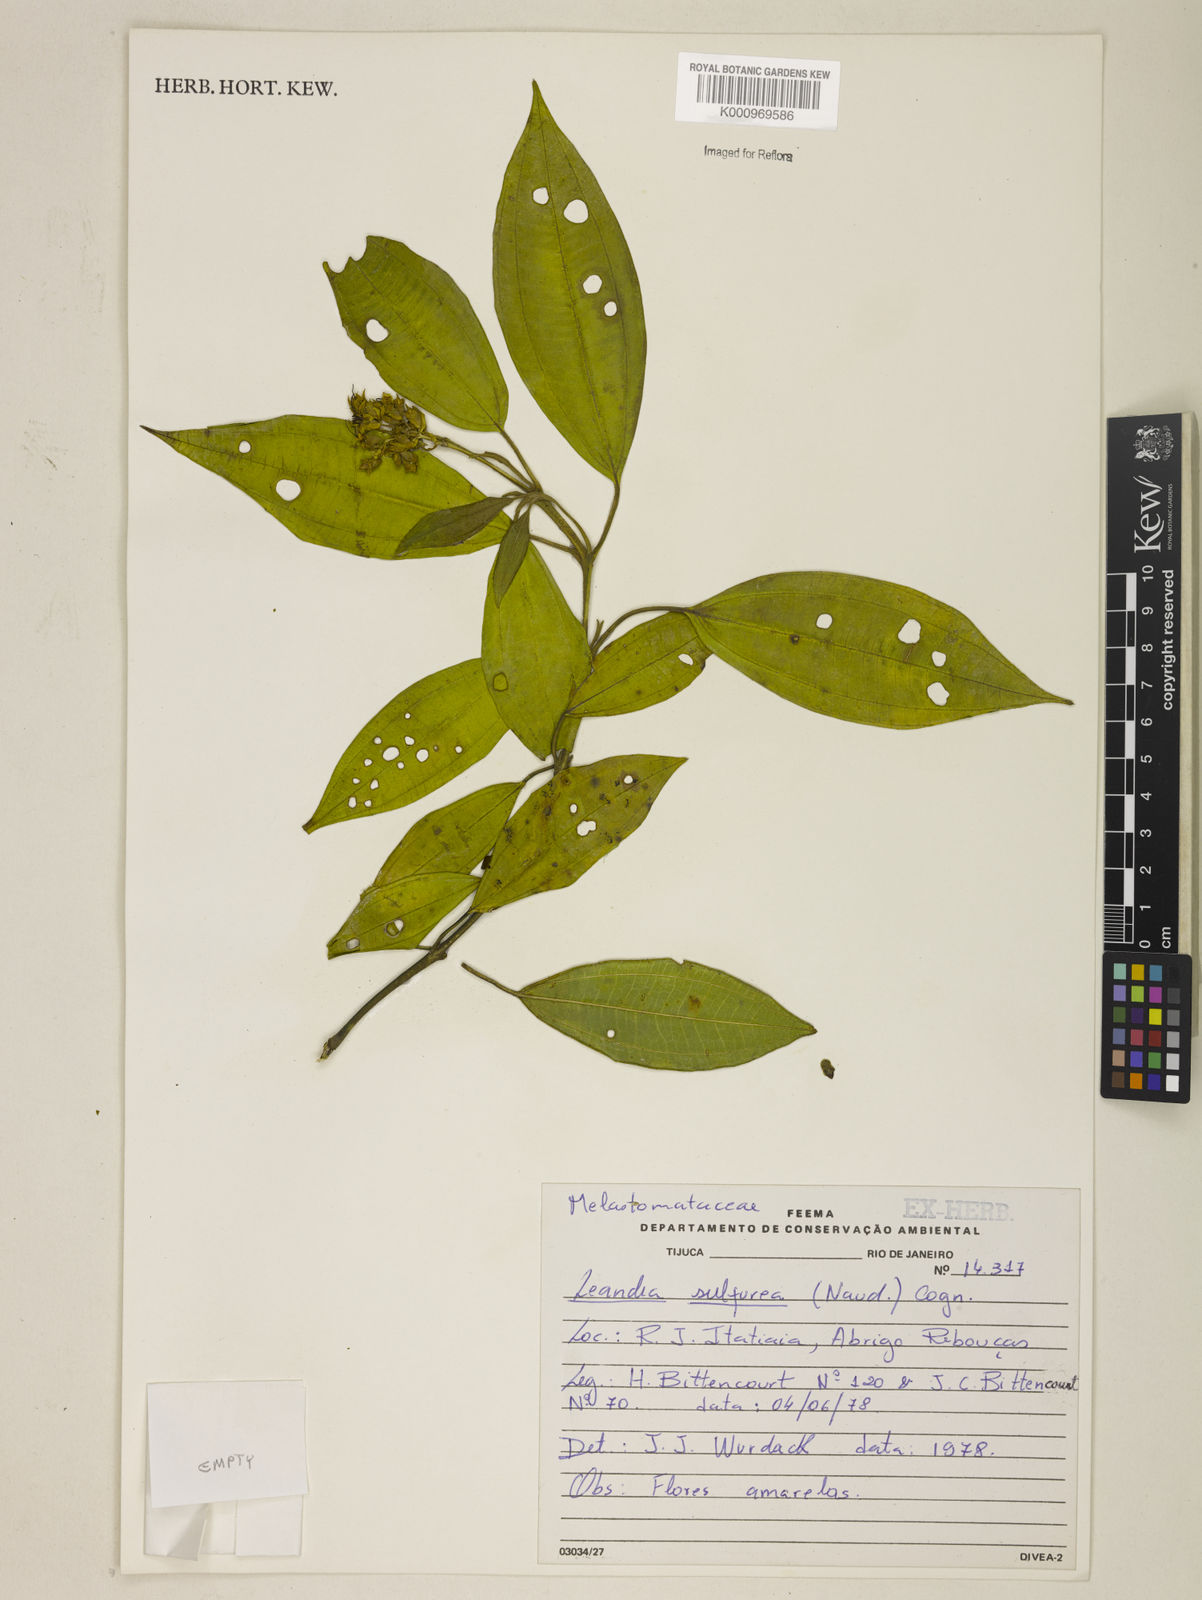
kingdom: Plantae
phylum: Tracheophyta
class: Magnoliopsida
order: Myrtales
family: Melastomataceae
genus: Miconia
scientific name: Miconia sulfurea
